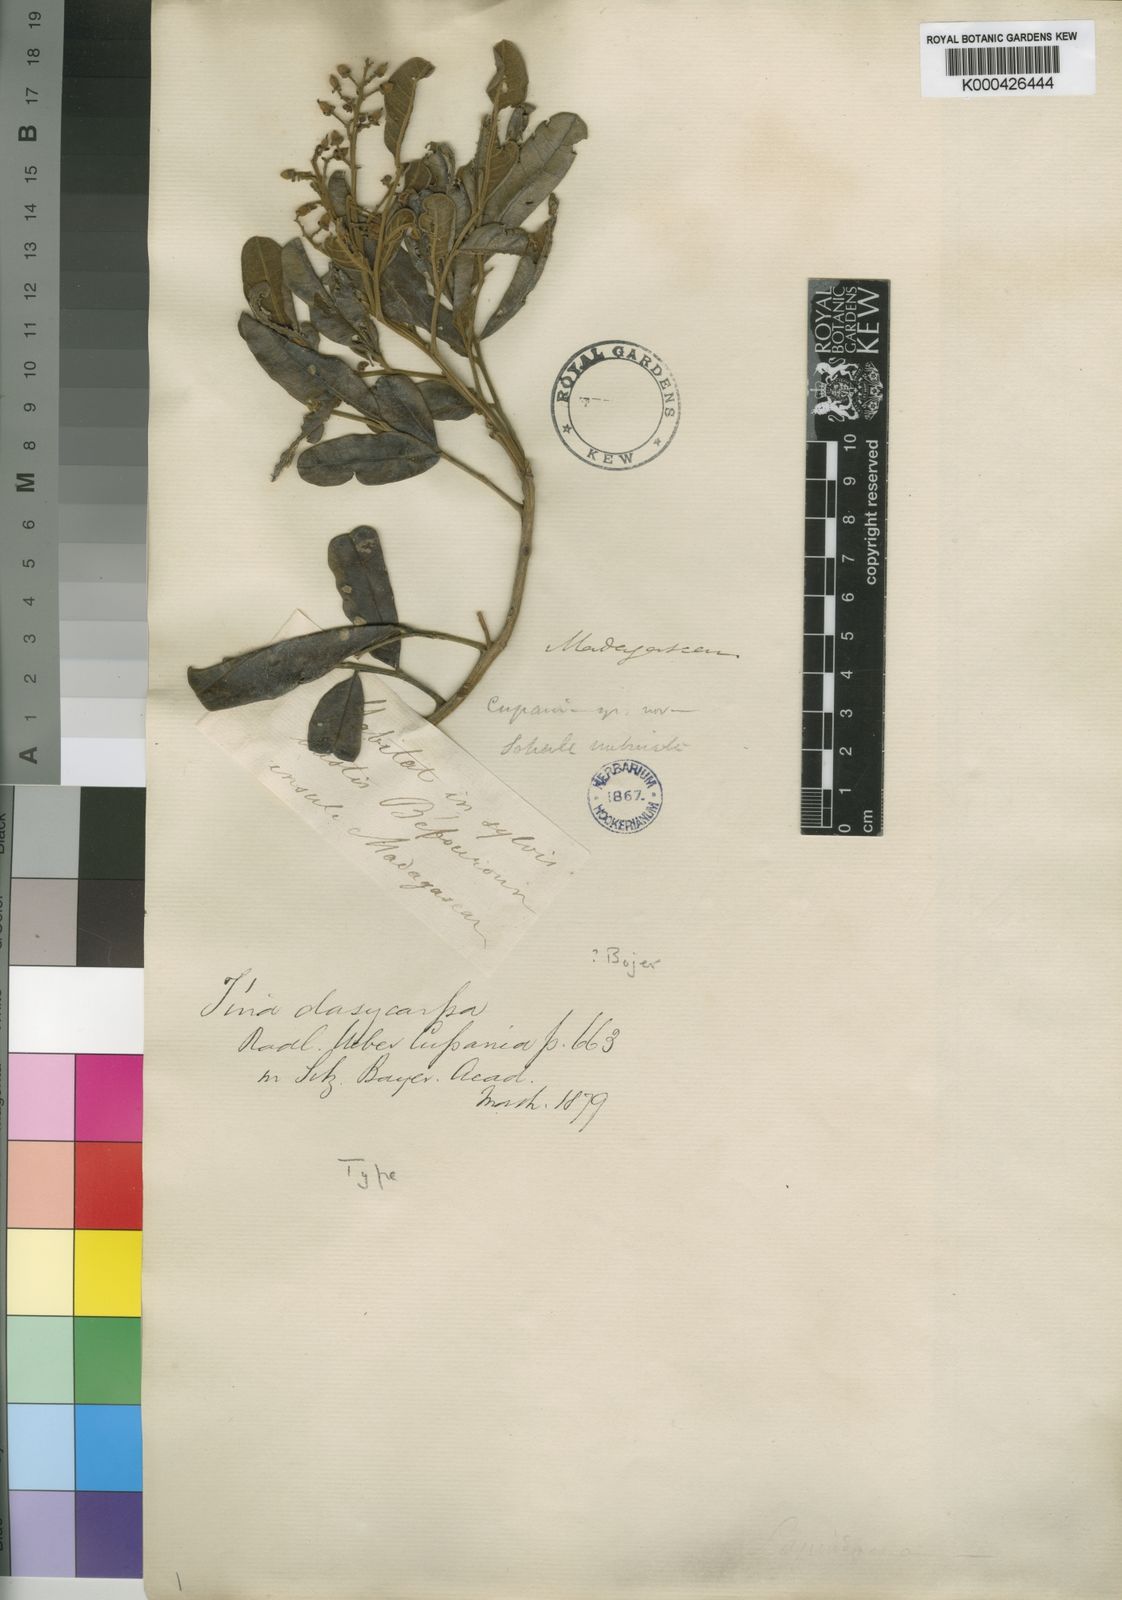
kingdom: Plantae
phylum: Tracheophyta
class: Magnoliopsida
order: Sapindales
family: Sapindaceae
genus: Tina
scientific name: Tina dasycarpa
